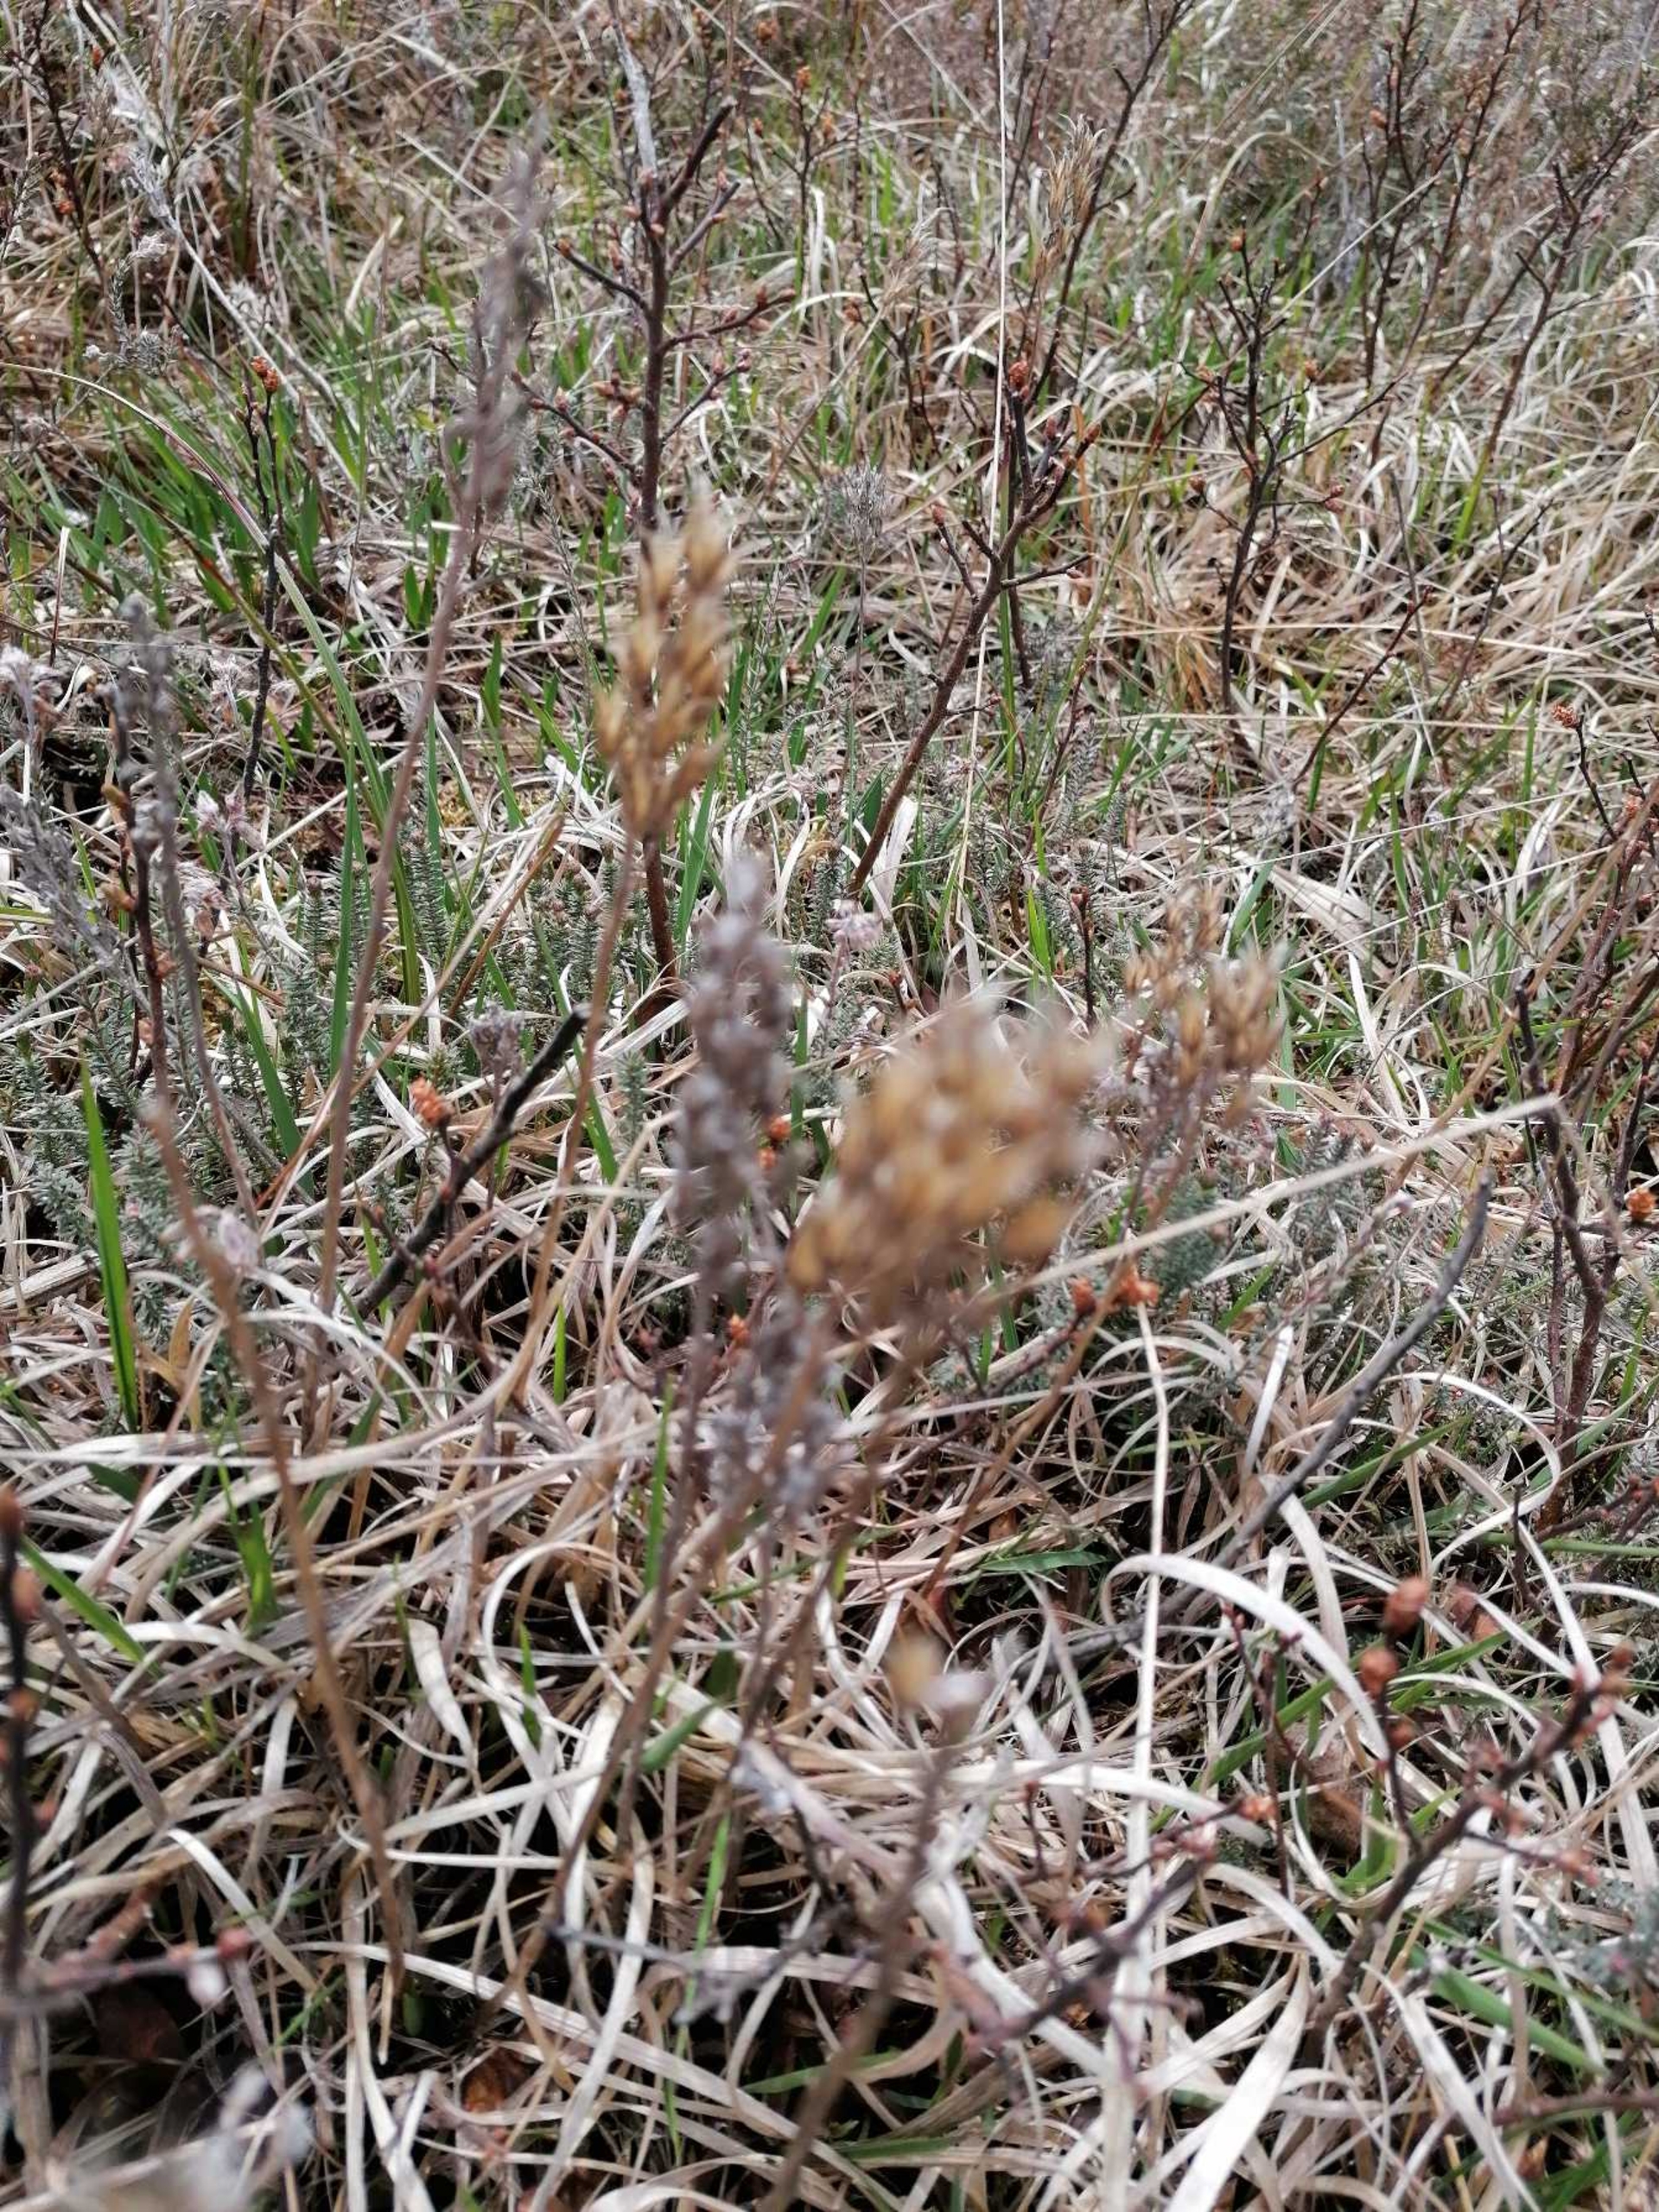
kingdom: Plantae
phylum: Tracheophyta
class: Liliopsida
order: Dioscoreales
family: Nartheciaceae
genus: Narthecium
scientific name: Narthecium ossifragum
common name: Benbræk
